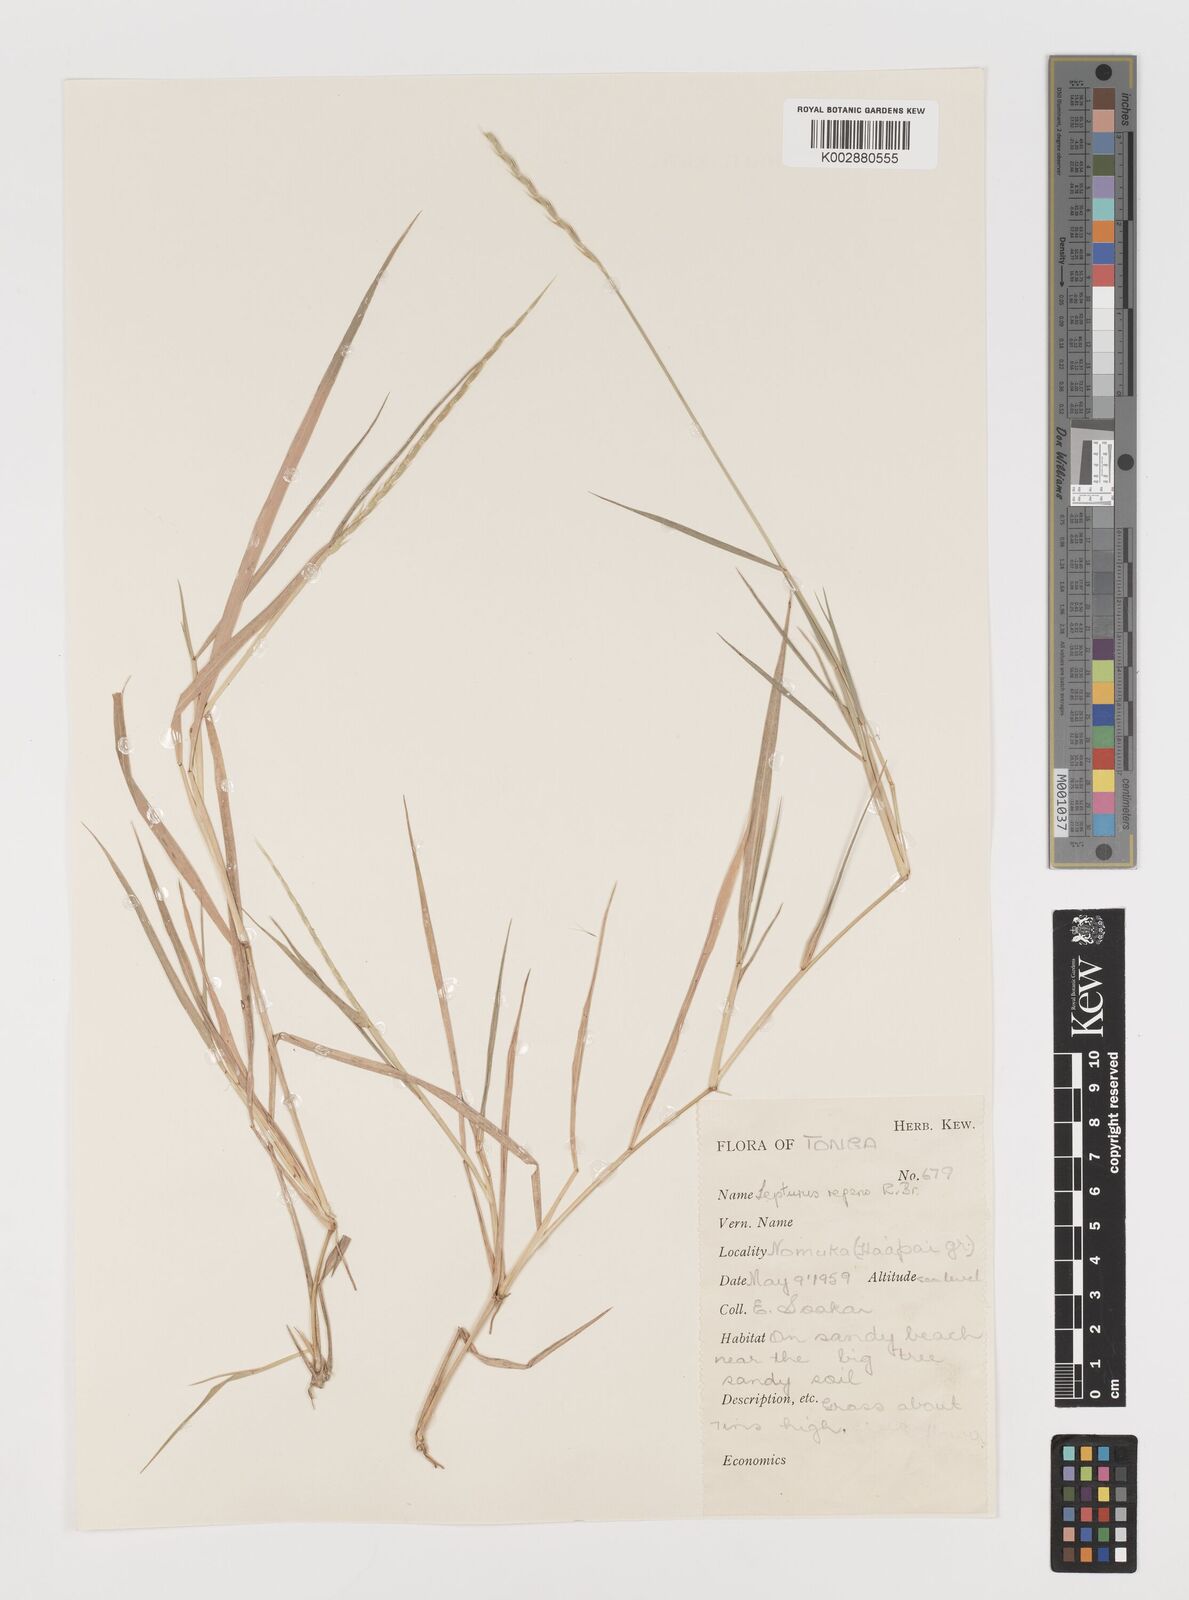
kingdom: Plantae
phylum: Tracheophyta
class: Liliopsida
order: Poales
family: Poaceae
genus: Lepturus
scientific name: Lepturus repens
